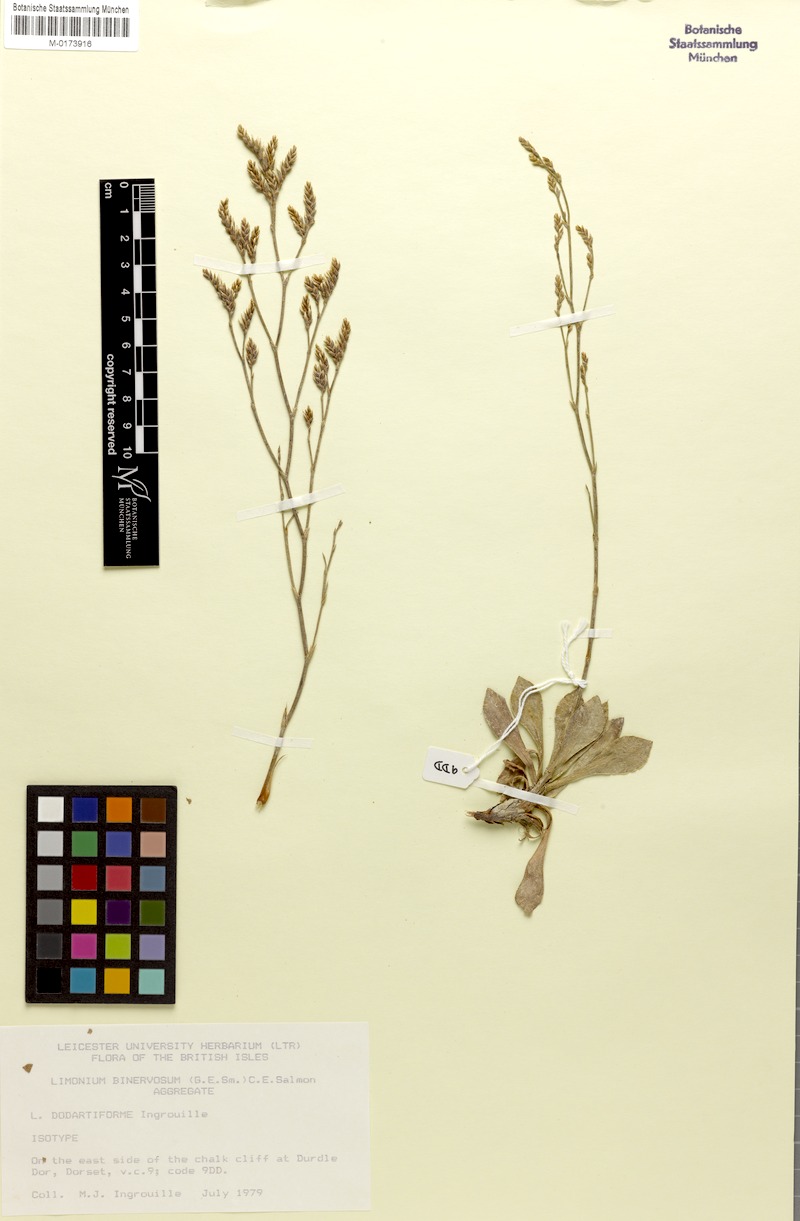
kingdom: Plantae
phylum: Tracheophyta
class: Magnoliopsida
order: Caryophyllales
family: Plumbaginaceae
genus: Limonium
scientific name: Limonium dodartiforme
